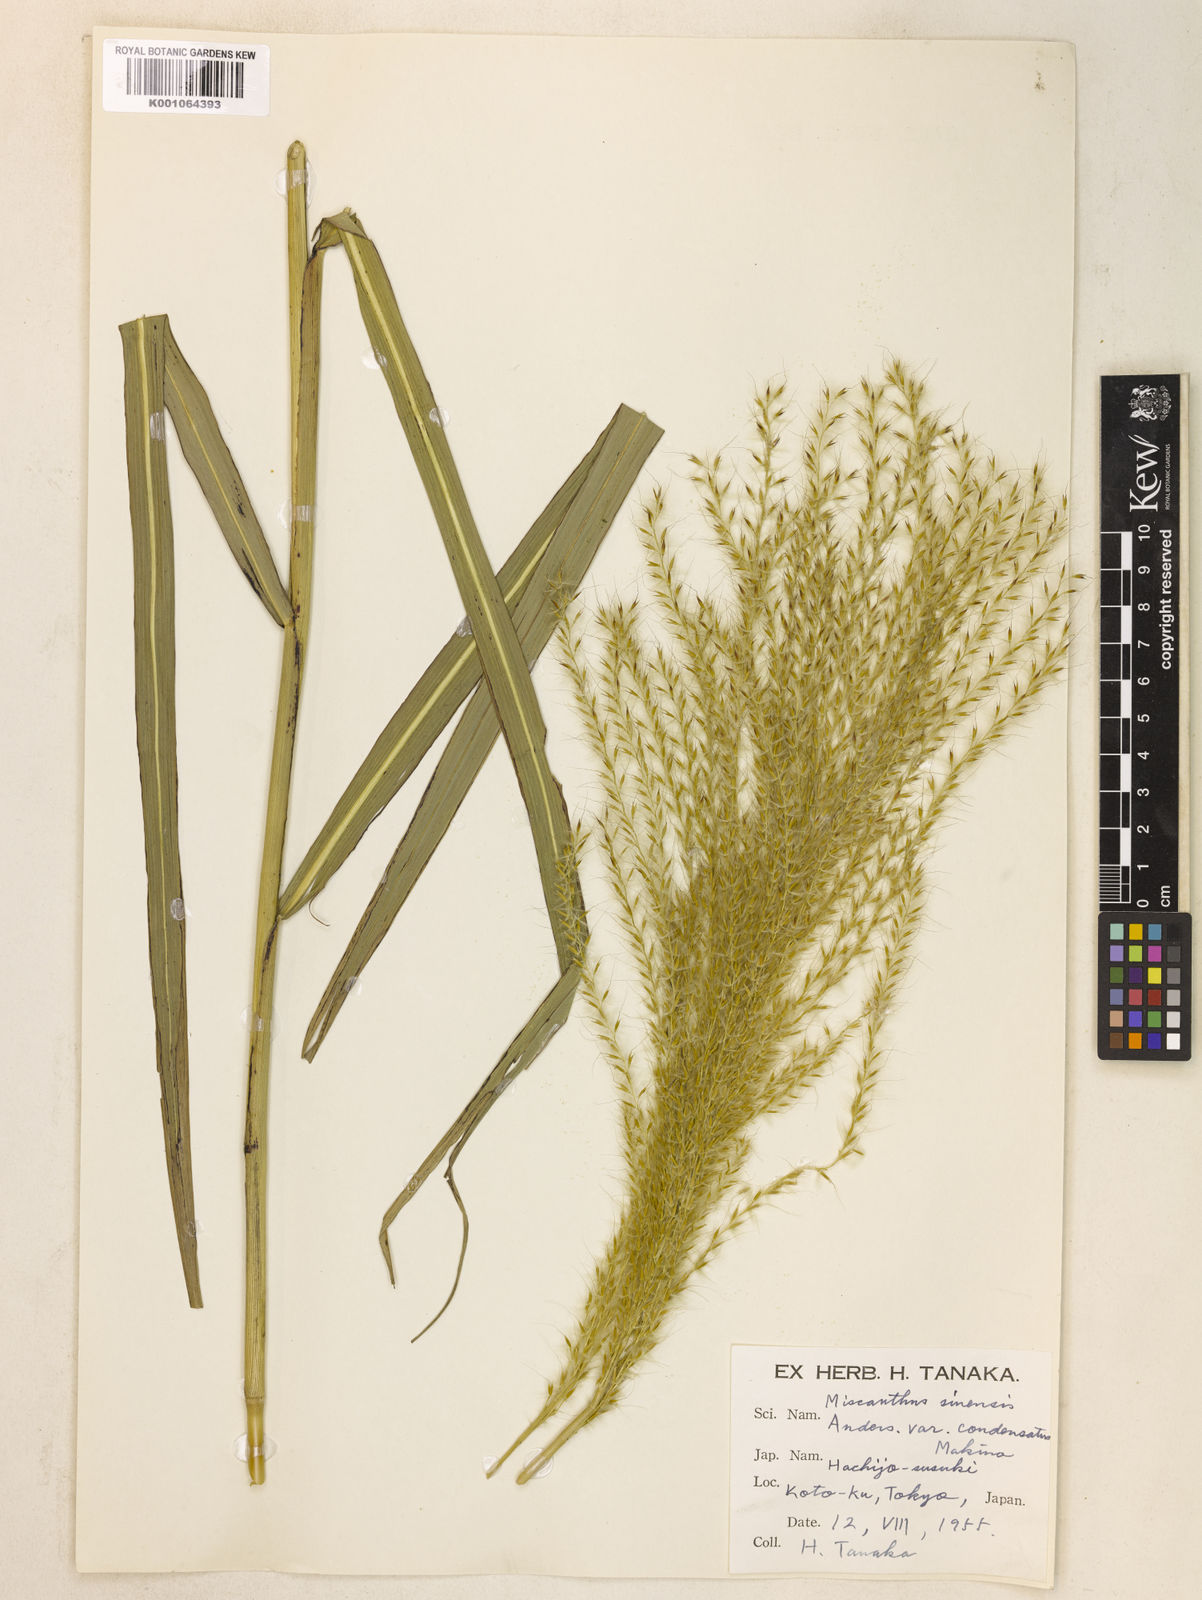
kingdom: Plantae
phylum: Tracheophyta
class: Liliopsida
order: Poales
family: Poaceae
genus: Miscanthus
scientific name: Miscanthus sinensis
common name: Chinese silvergrass
